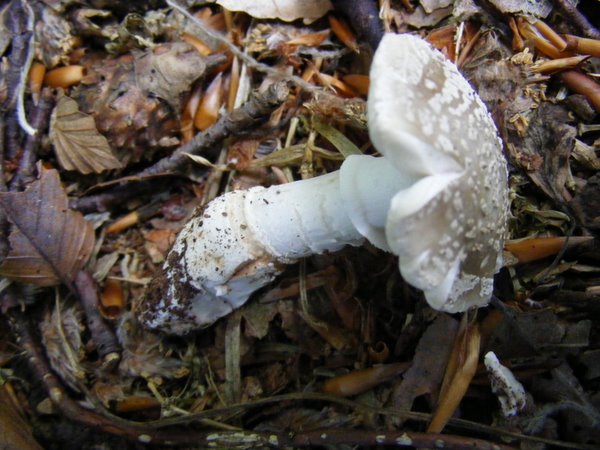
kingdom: Fungi
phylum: Basidiomycota
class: Agaricomycetes
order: Agaricales
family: Amanitaceae
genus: Amanita
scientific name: Amanita
